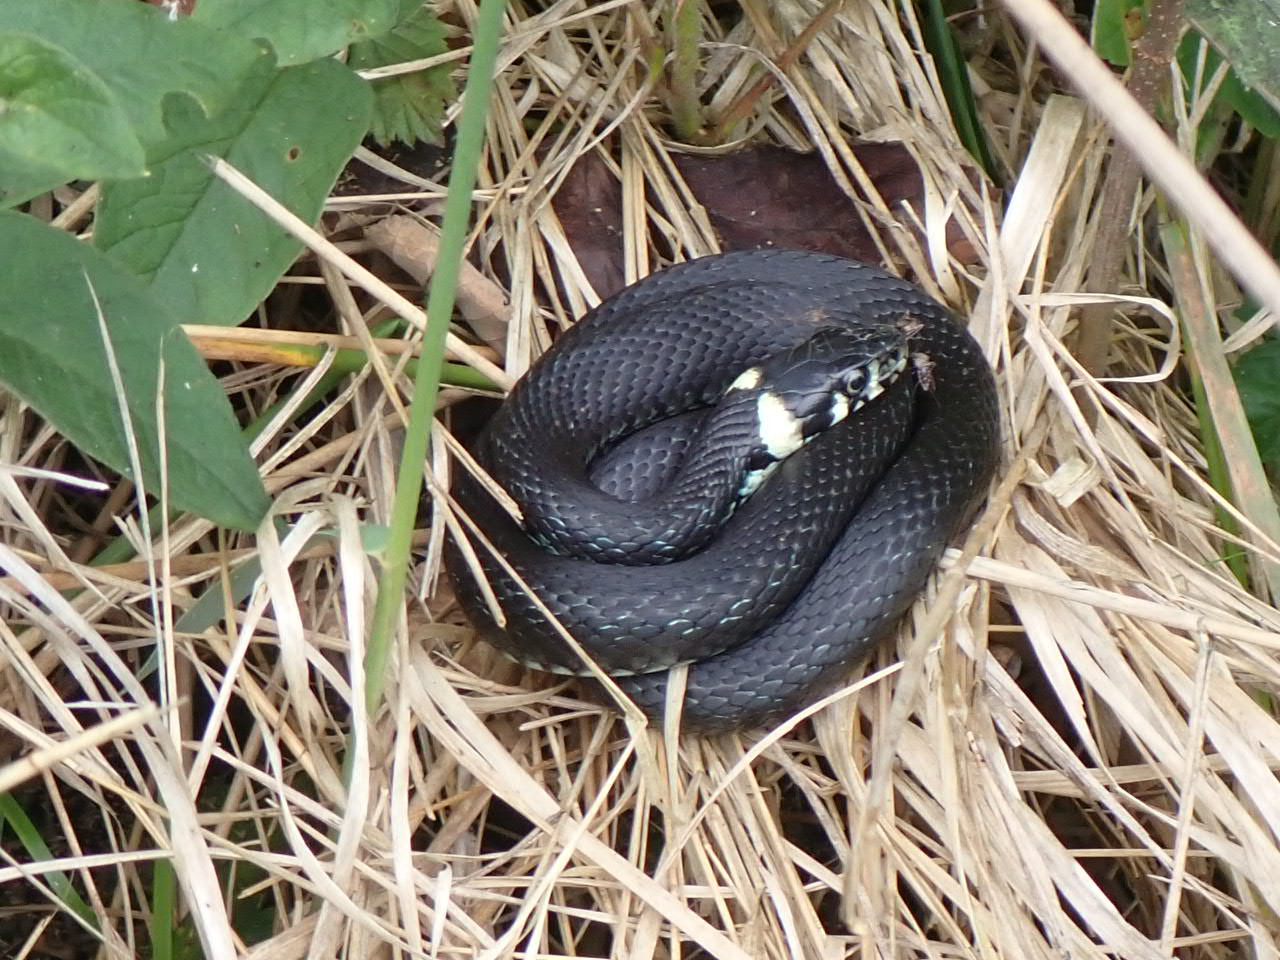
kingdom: Animalia
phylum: Chordata
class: Squamata
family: Colubridae
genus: Natrix
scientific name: Natrix natrix
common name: Snog
